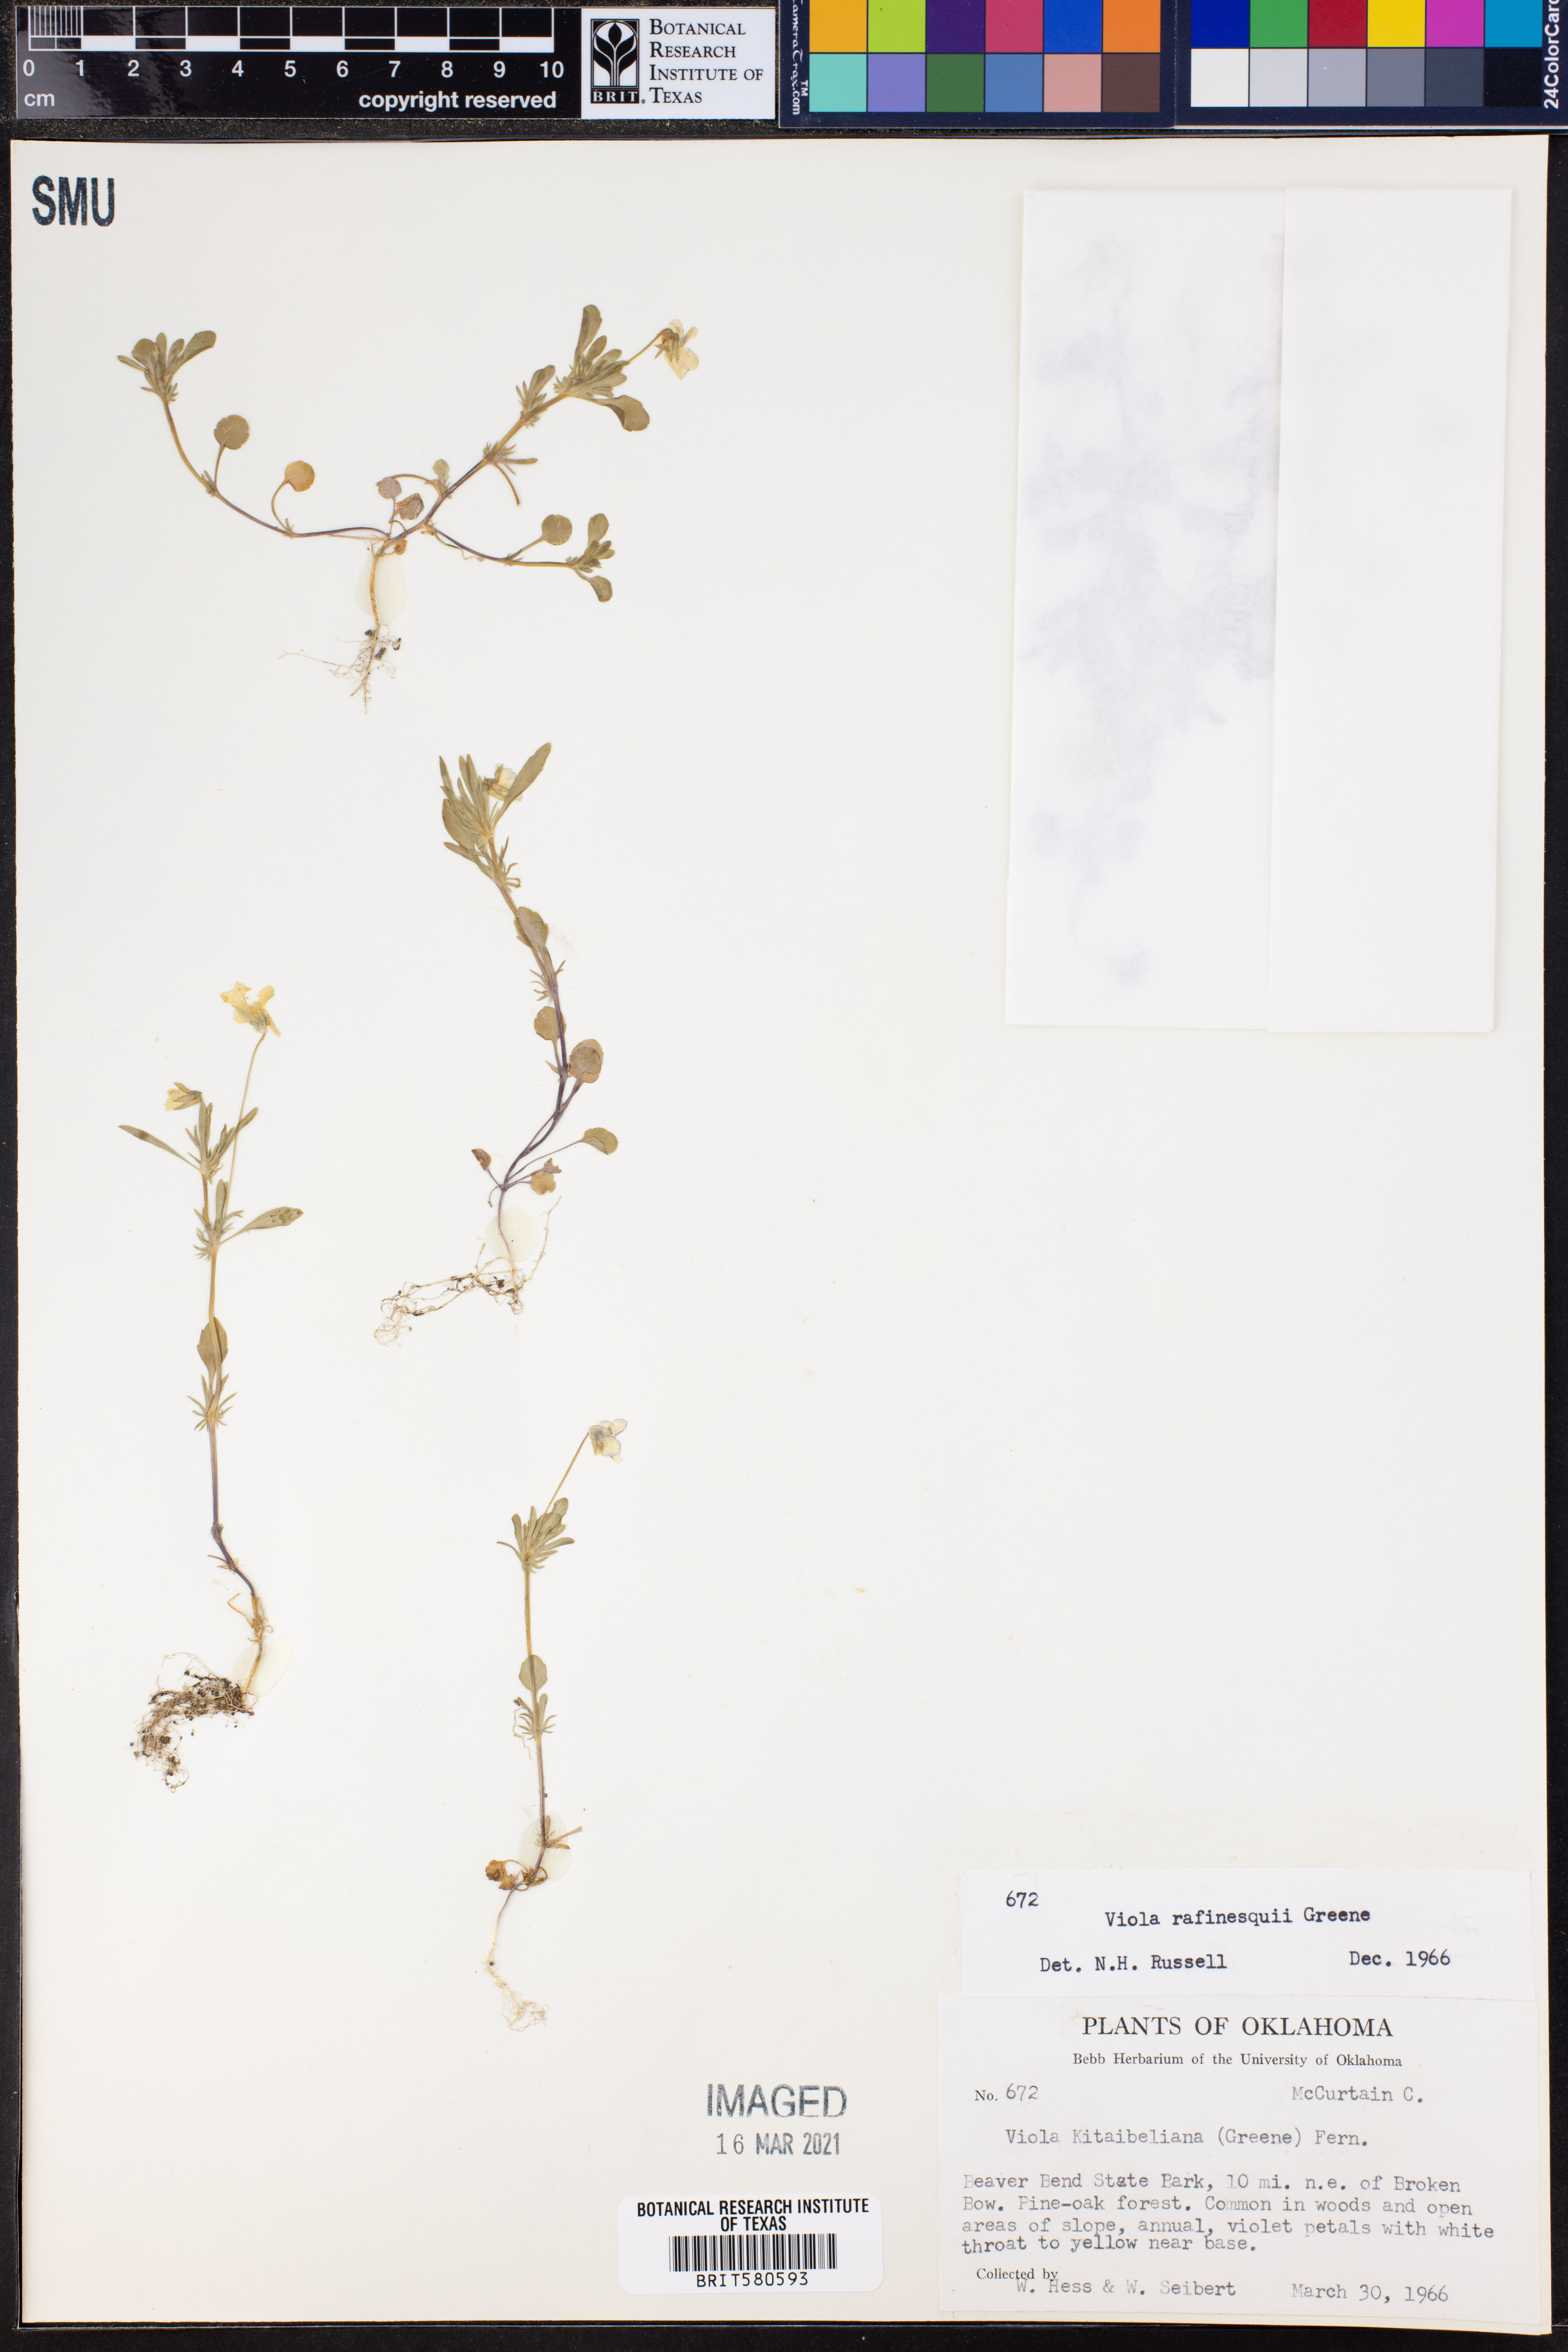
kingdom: Plantae
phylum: Tracheophyta
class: Magnoliopsida
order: Malpighiales
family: Violaceae
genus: Viola
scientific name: Viola rafinesquei
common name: American field pansy
